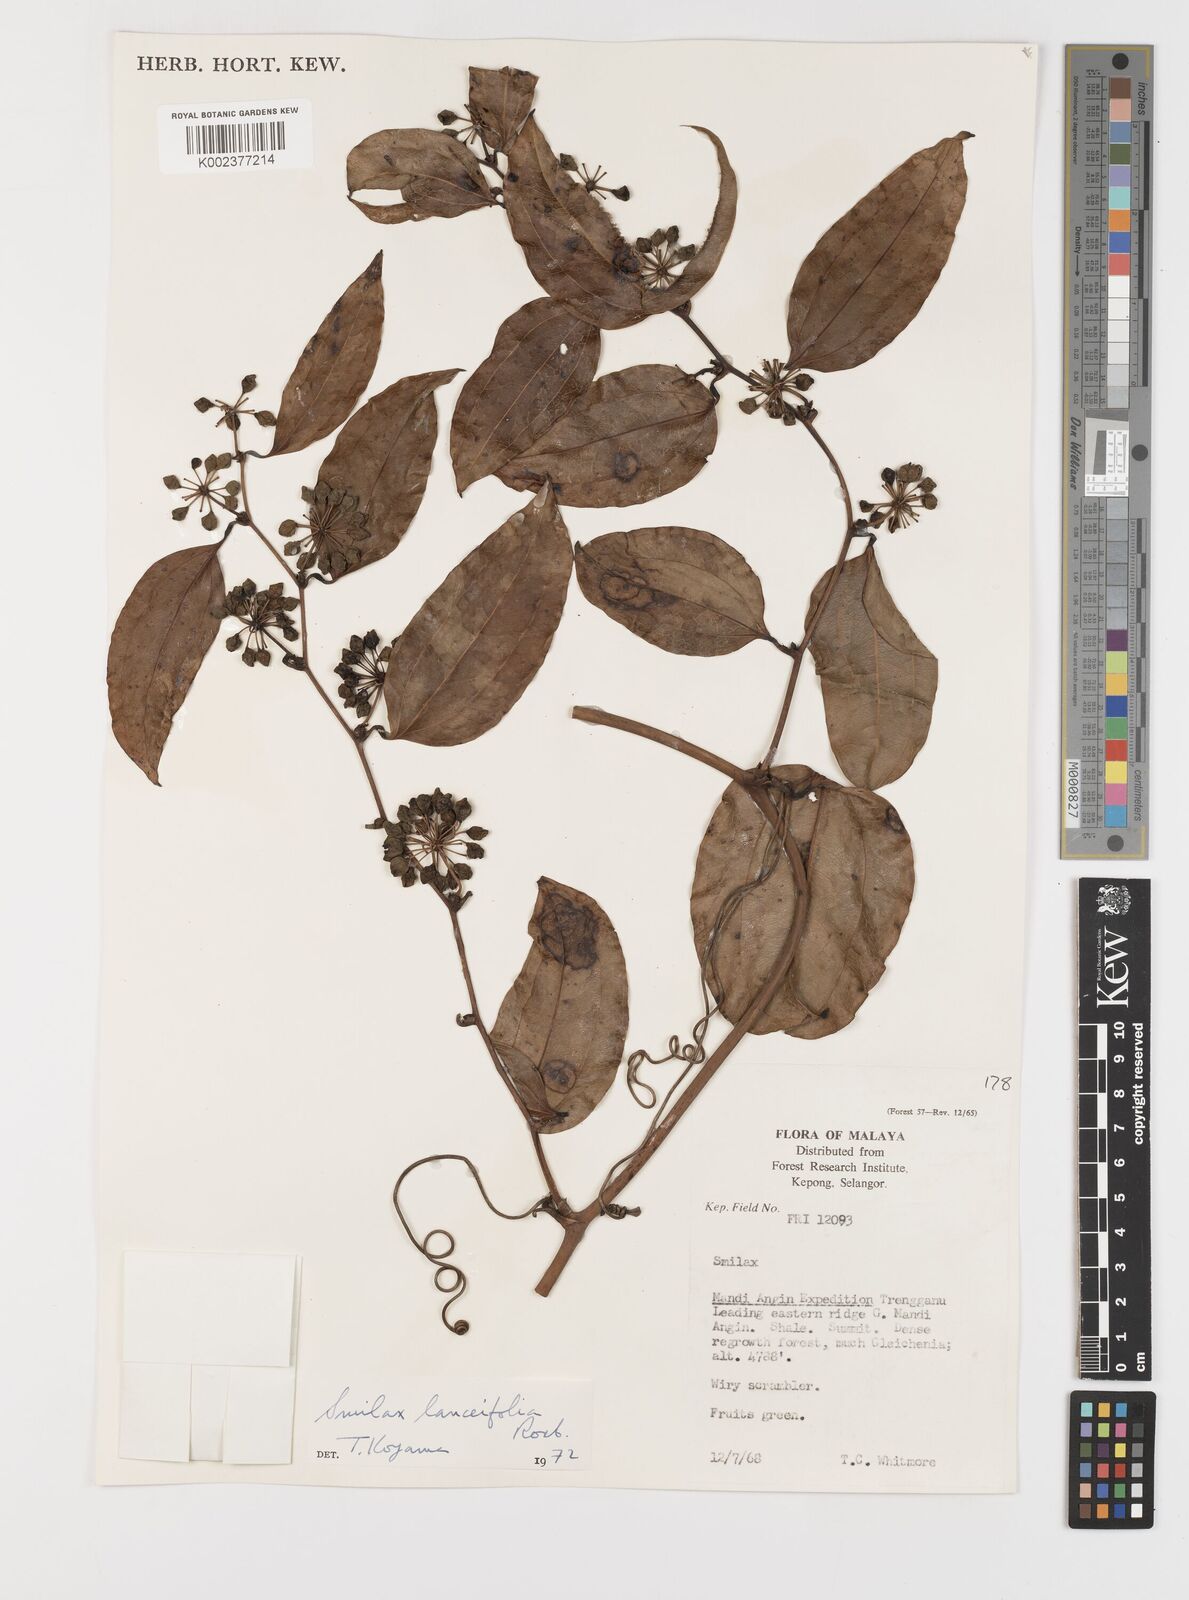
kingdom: Plantae
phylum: Tracheophyta
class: Liliopsida
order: Liliales
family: Smilacaceae
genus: Smilax
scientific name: Smilax lanceifolia
